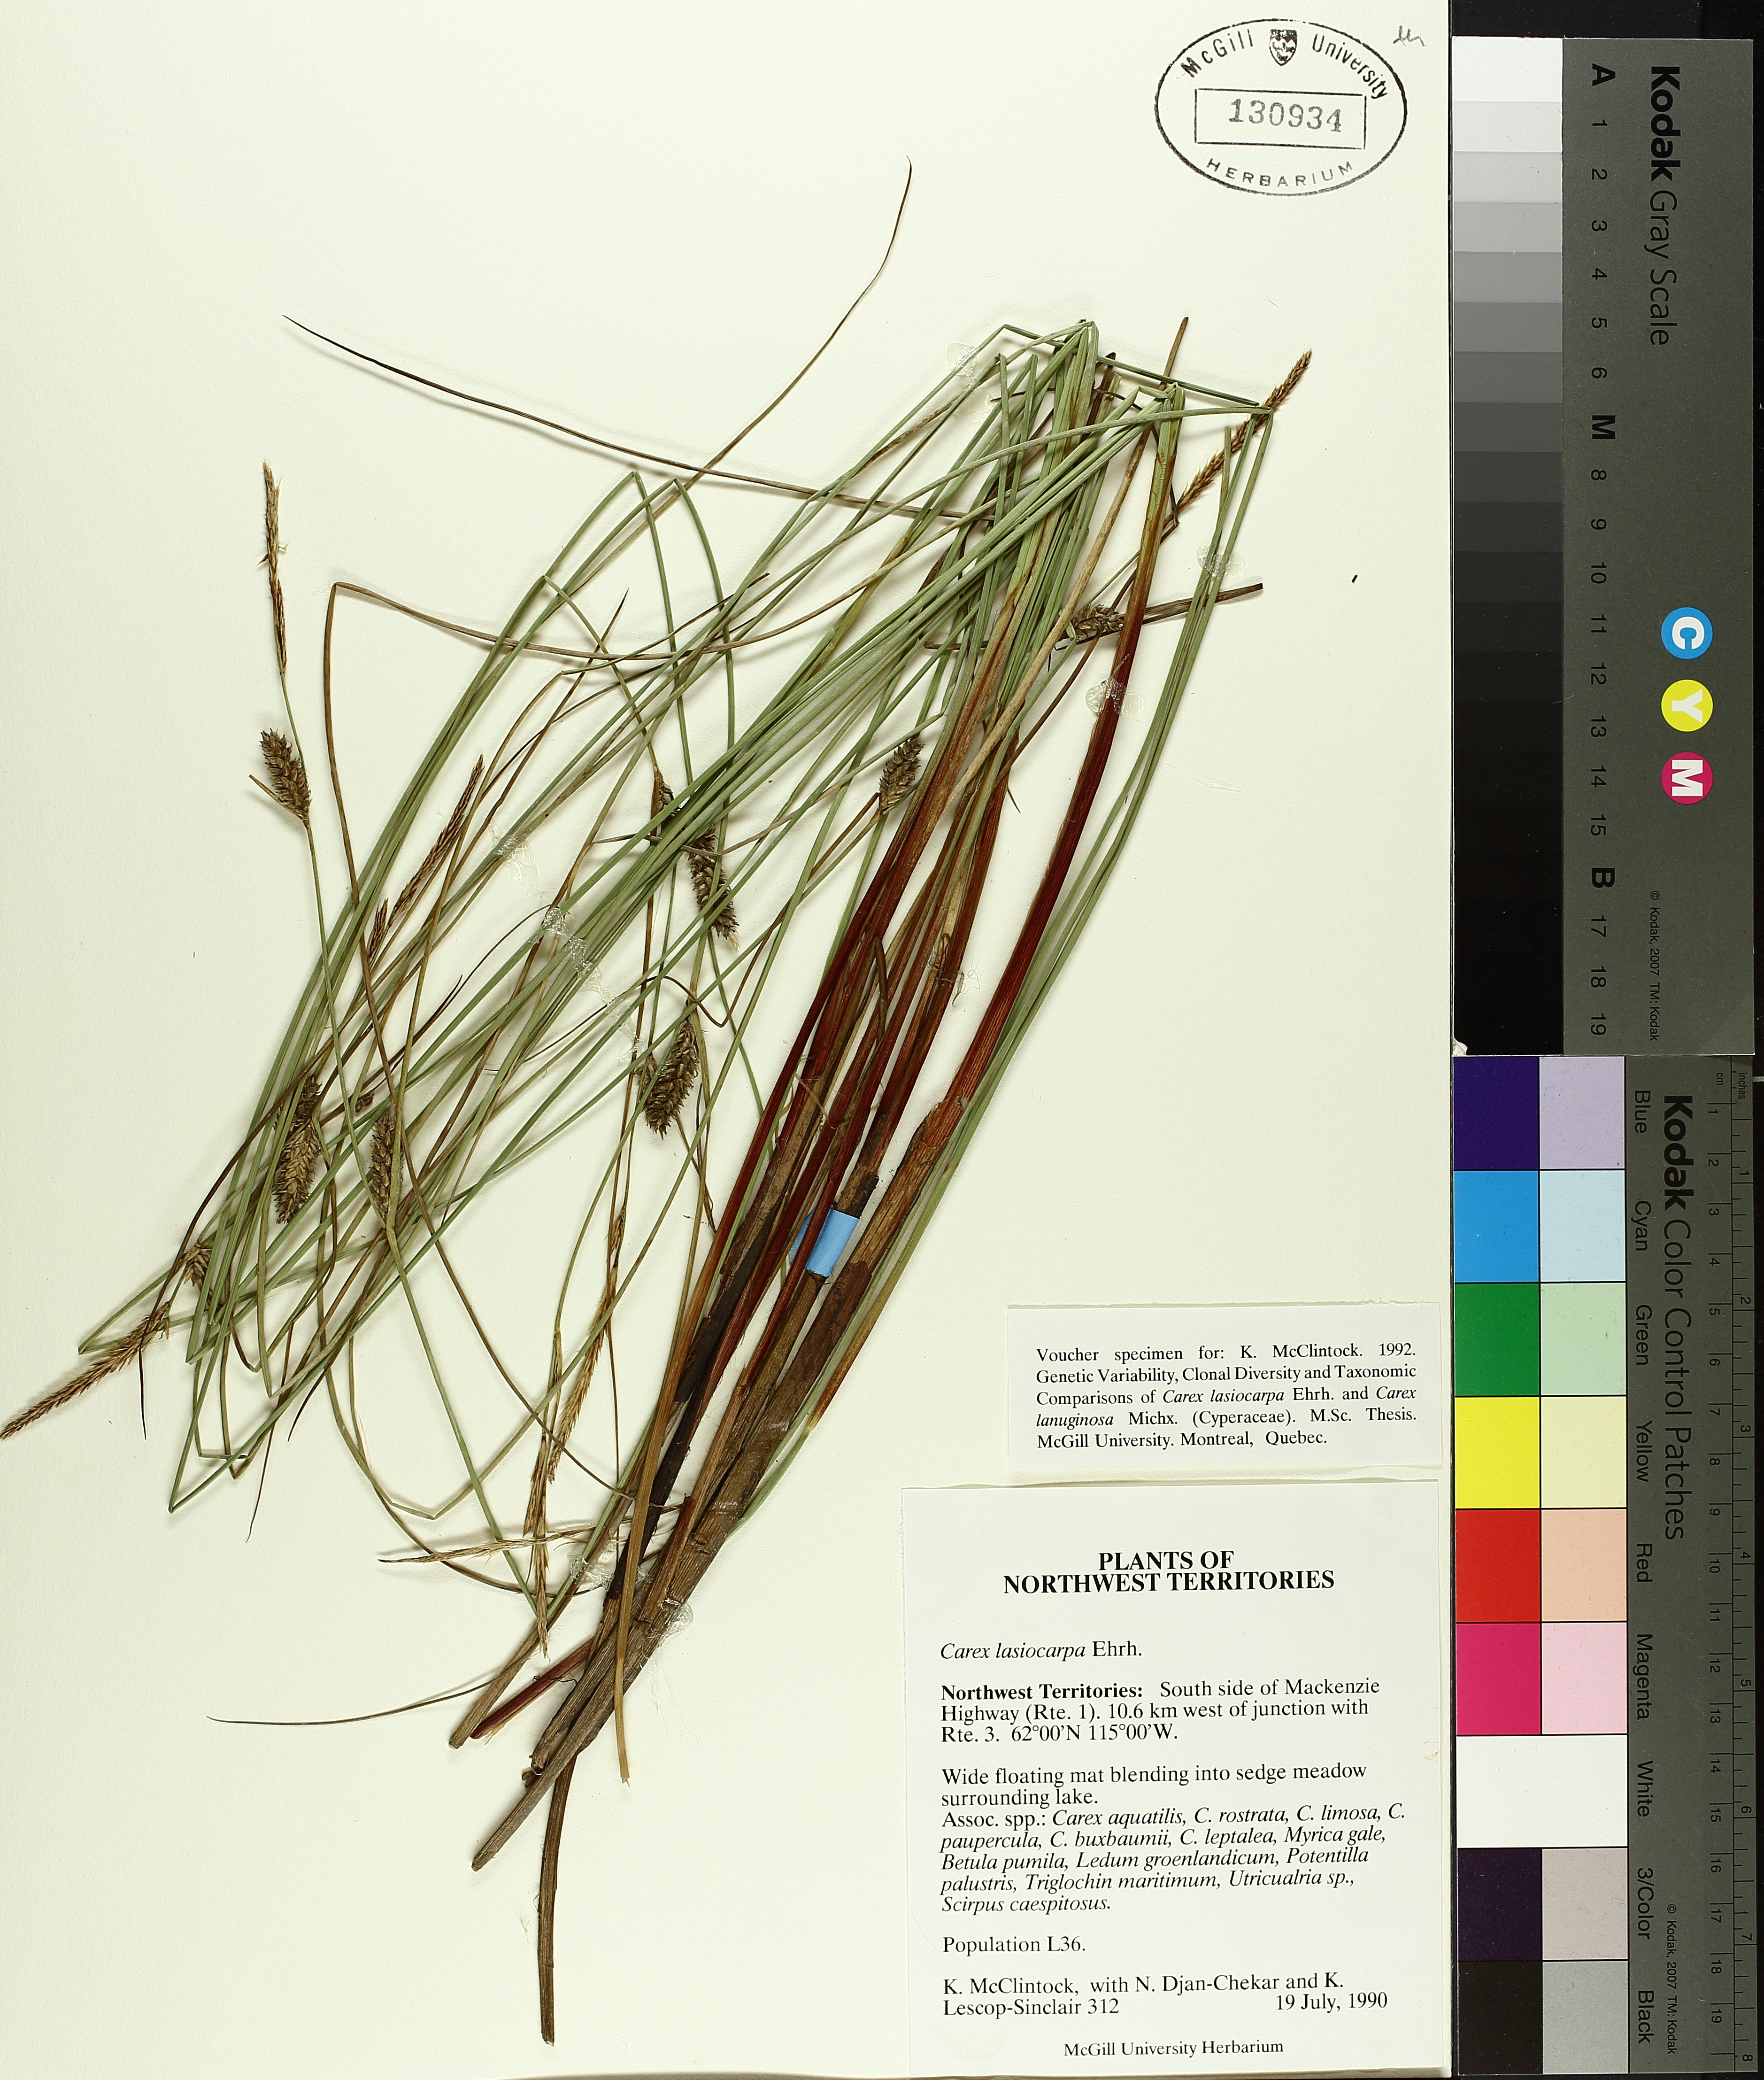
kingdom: Plantae
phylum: Tracheophyta
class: Liliopsida
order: Poales
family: Cyperaceae
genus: Carex
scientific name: Carex lasiocarpa
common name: Slender sedge
